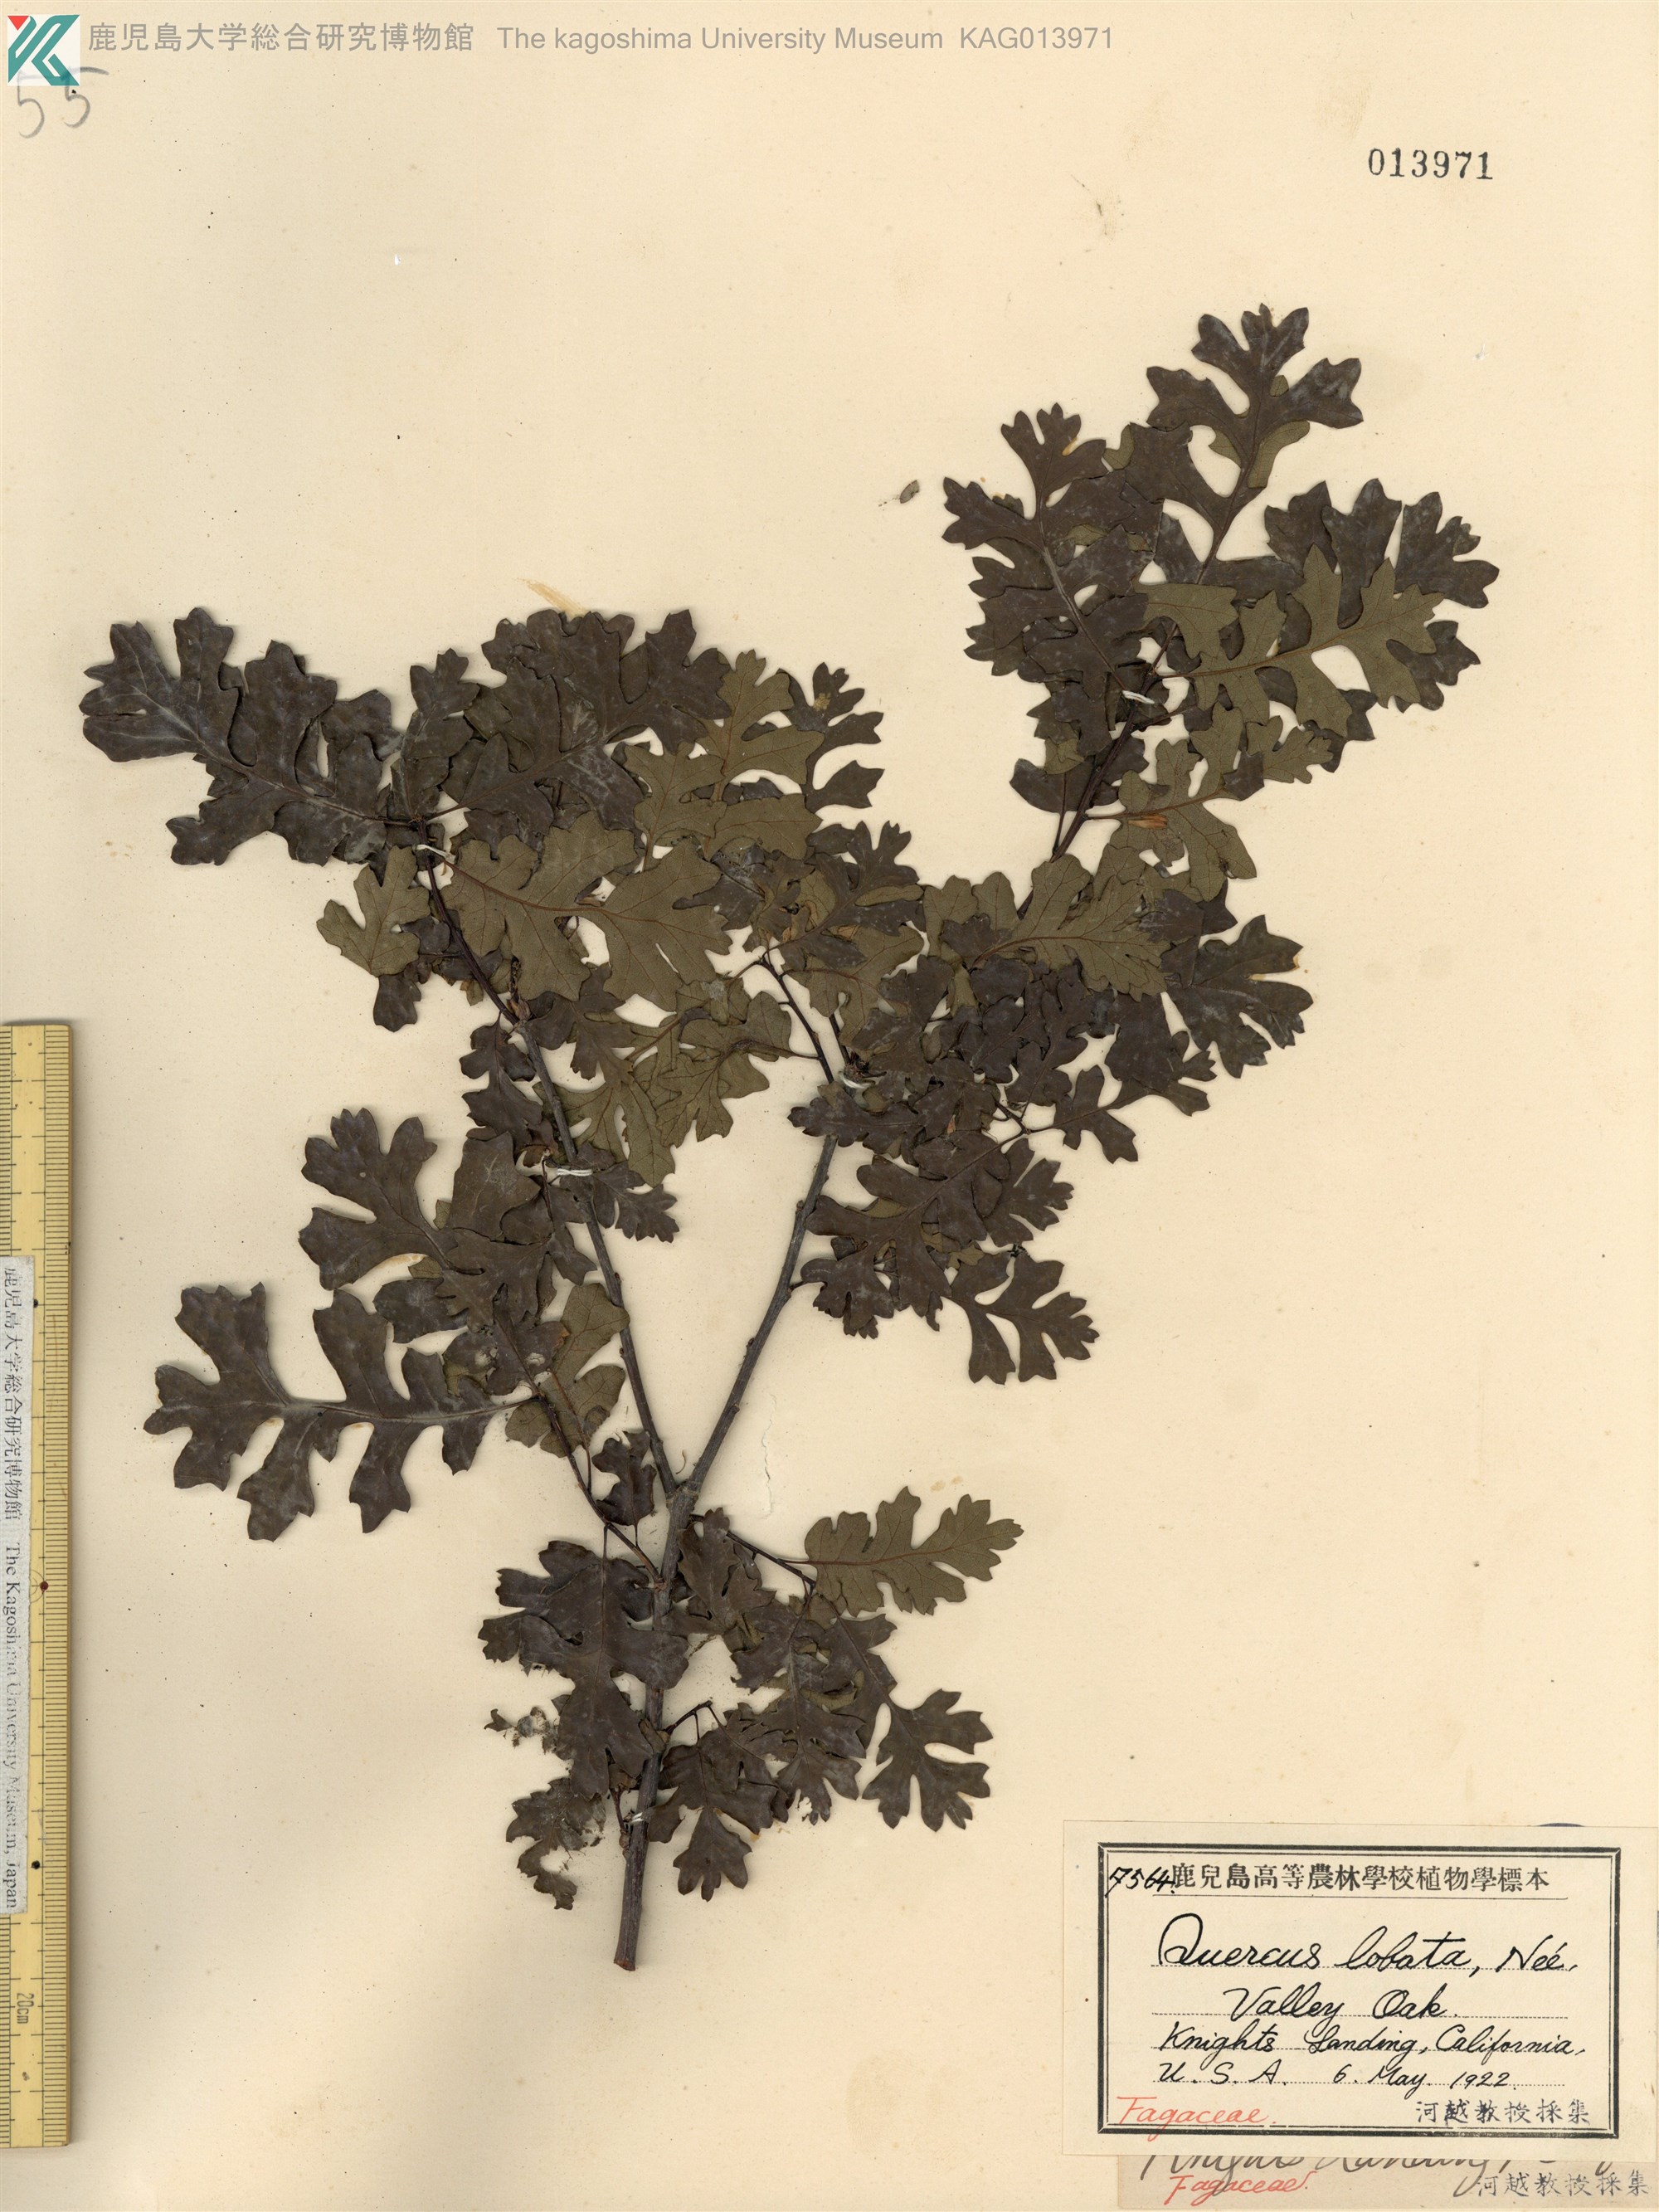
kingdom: Plantae
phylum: Tracheophyta
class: Magnoliopsida
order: Fagales
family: Fagaceae
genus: Quercus
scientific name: Quercus lobata
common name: Valley oak
